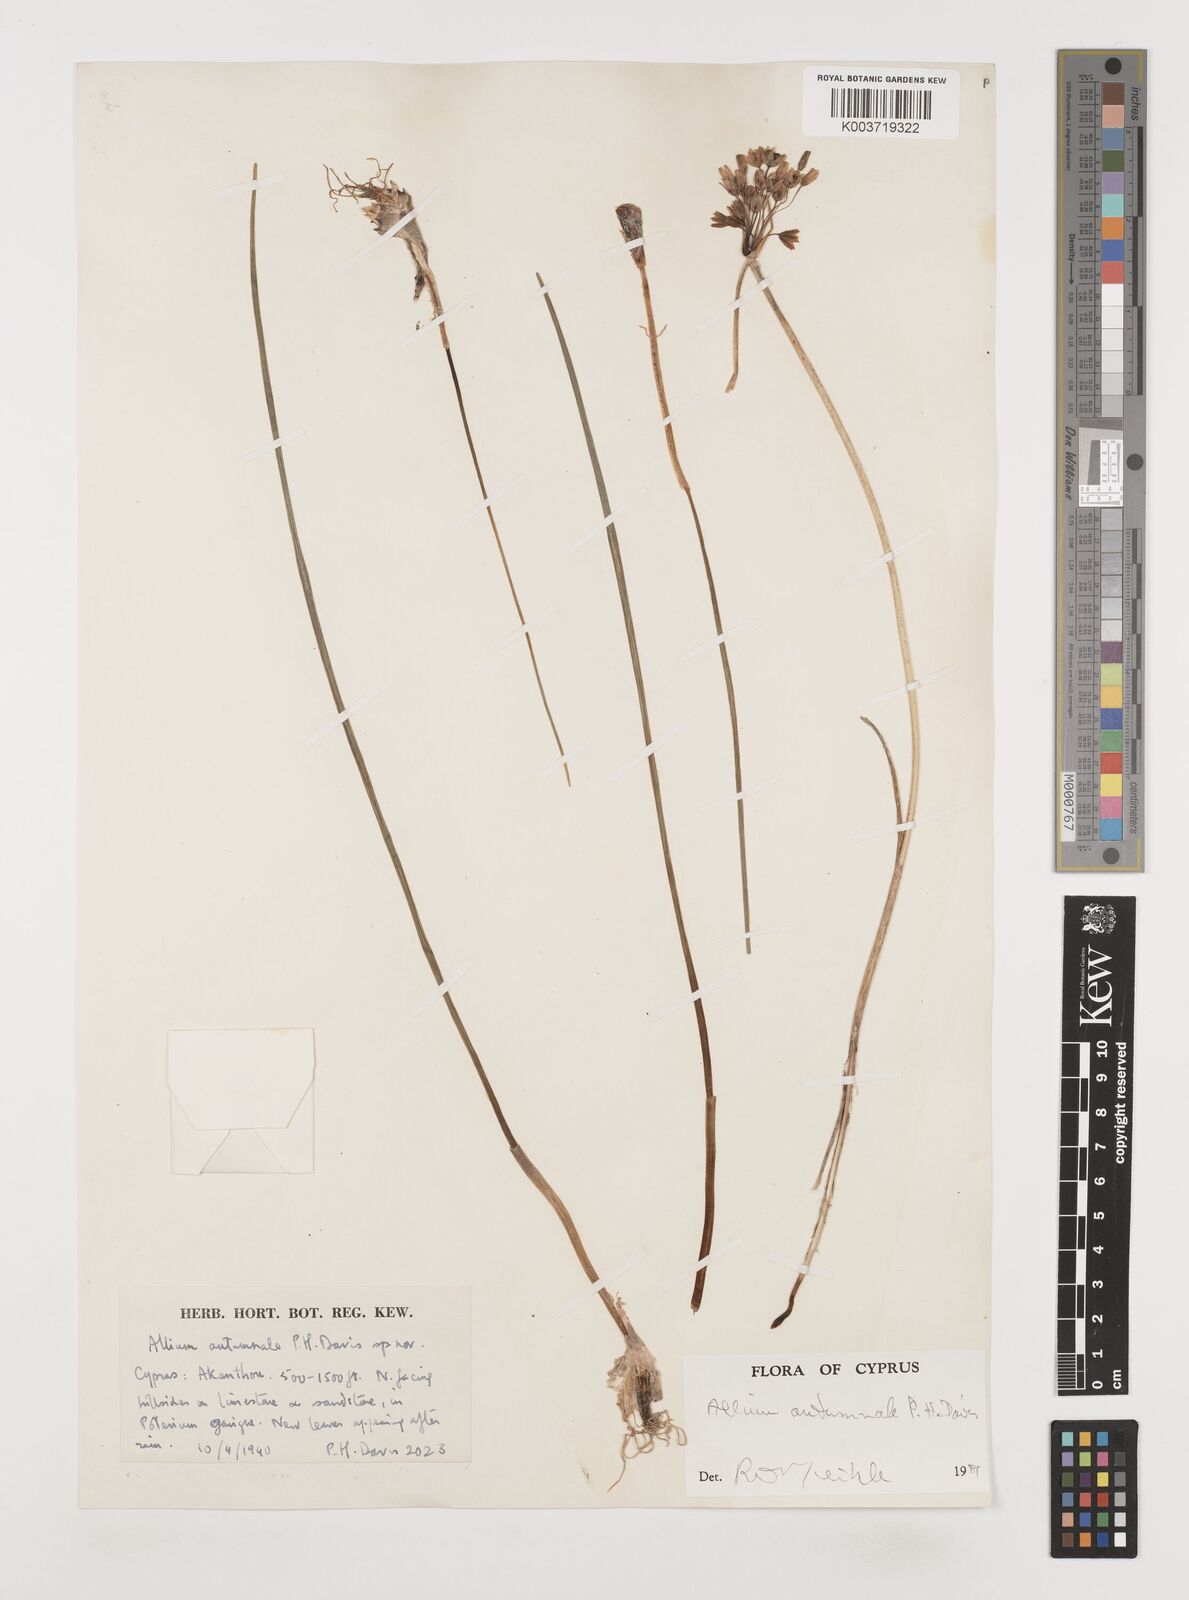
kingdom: Plantae
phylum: Tracheophyta
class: Liliopsida
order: Asparagales
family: Amaryllidaceae
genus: Allium
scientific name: Allium autumnale
